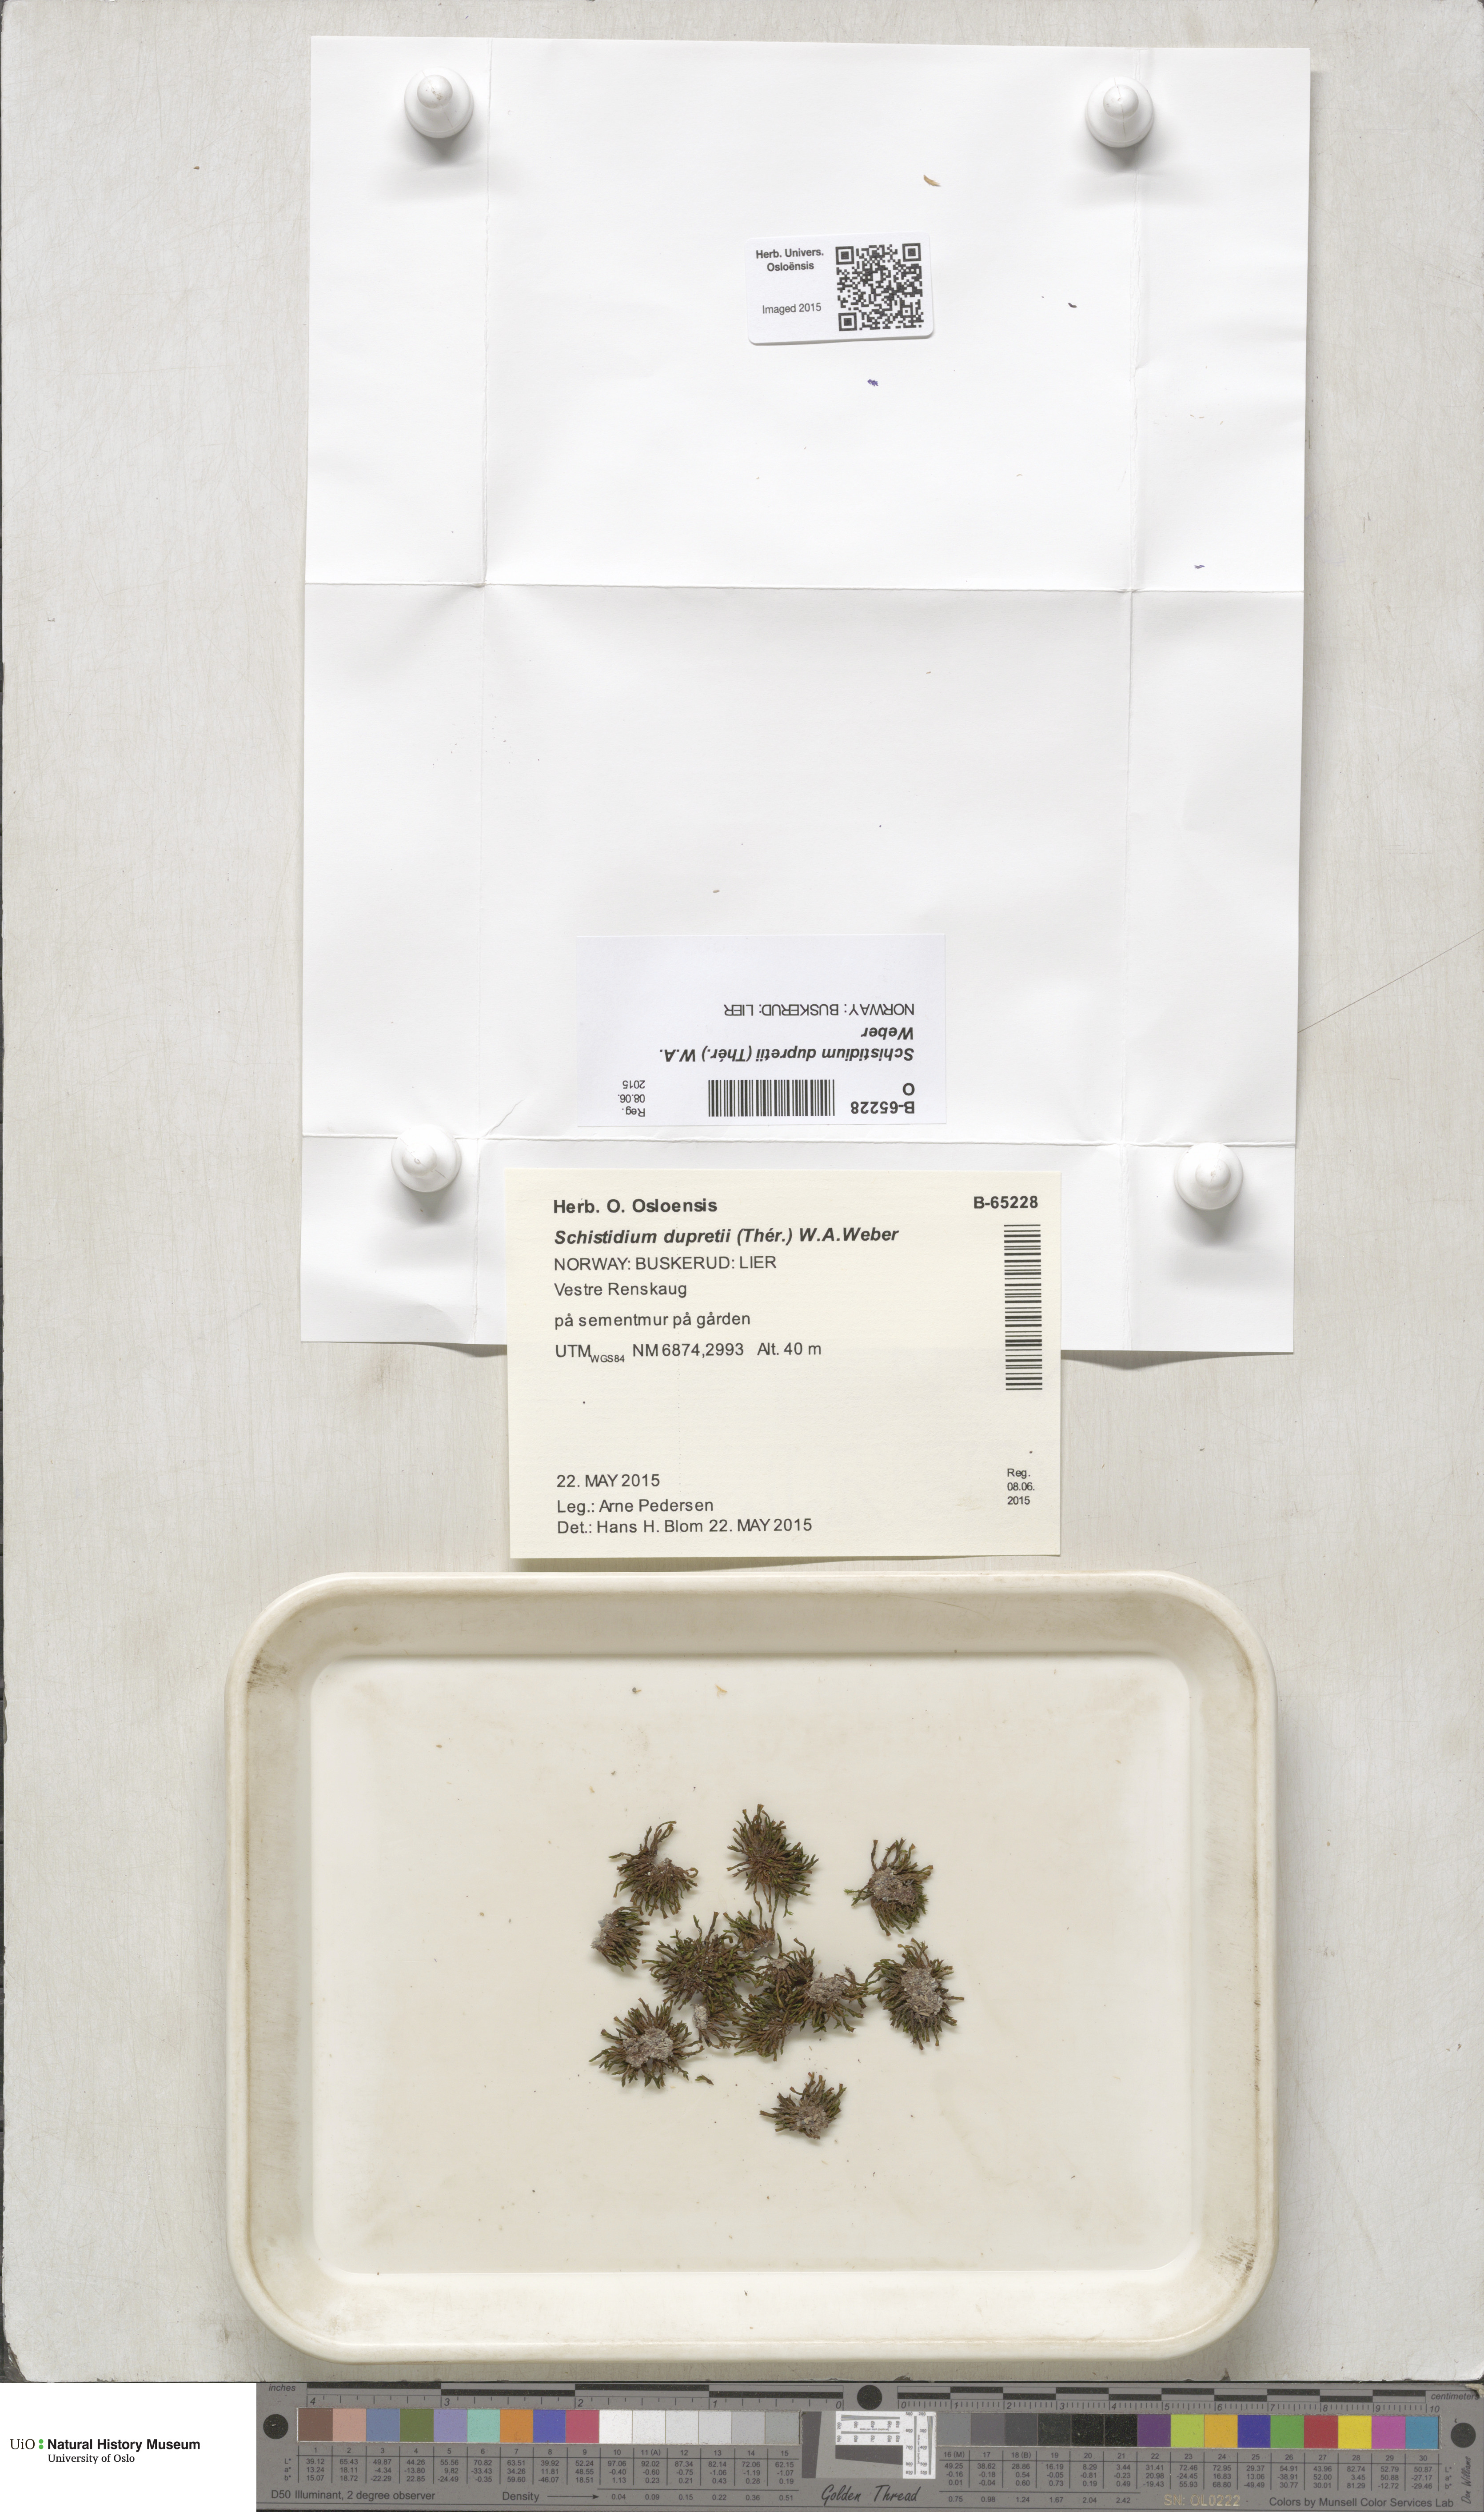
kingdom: Plantae
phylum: Bryophyta
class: Bryopsida
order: Grimmiales
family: Grimmiaceae
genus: Schistidium
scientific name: Schistidium dupretii
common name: Dupret's bloom moss
